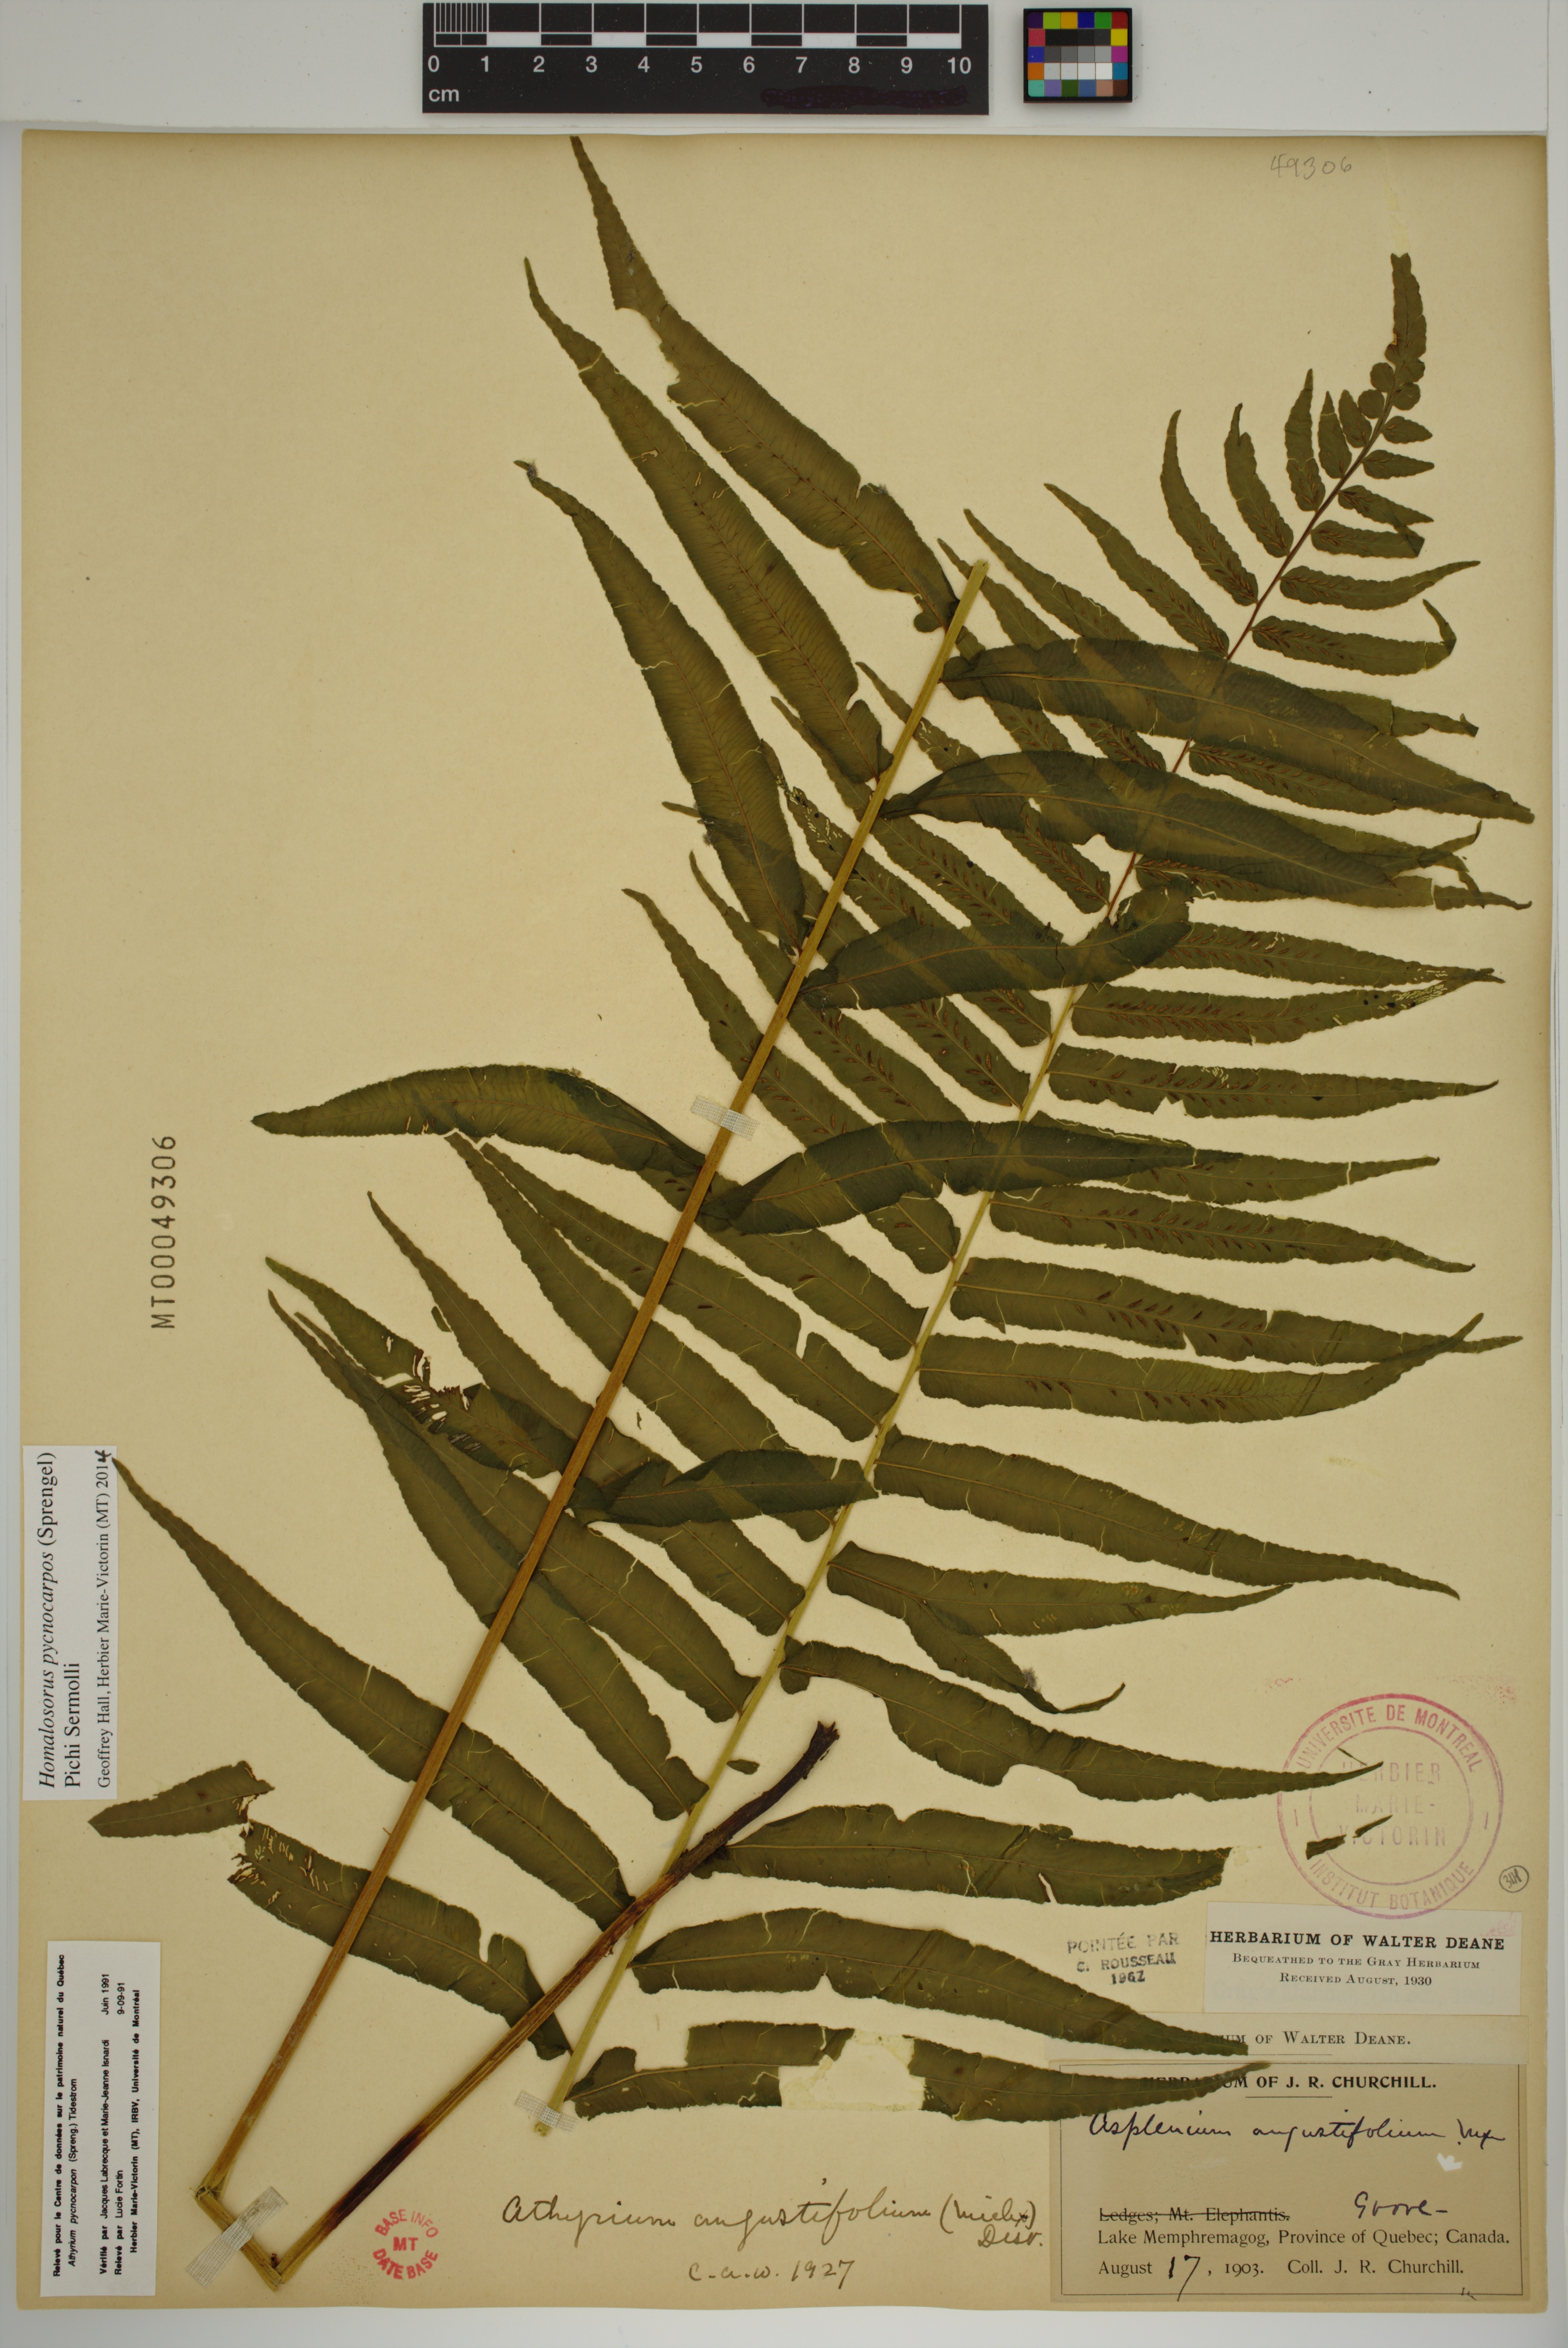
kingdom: Plantae
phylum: Tracheophyta
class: Polypodiopsida
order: Polypodiales
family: Diplaziopsidaceae
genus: Homalosorus
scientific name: Homalosorus pycnocarpos
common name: Glade fern
